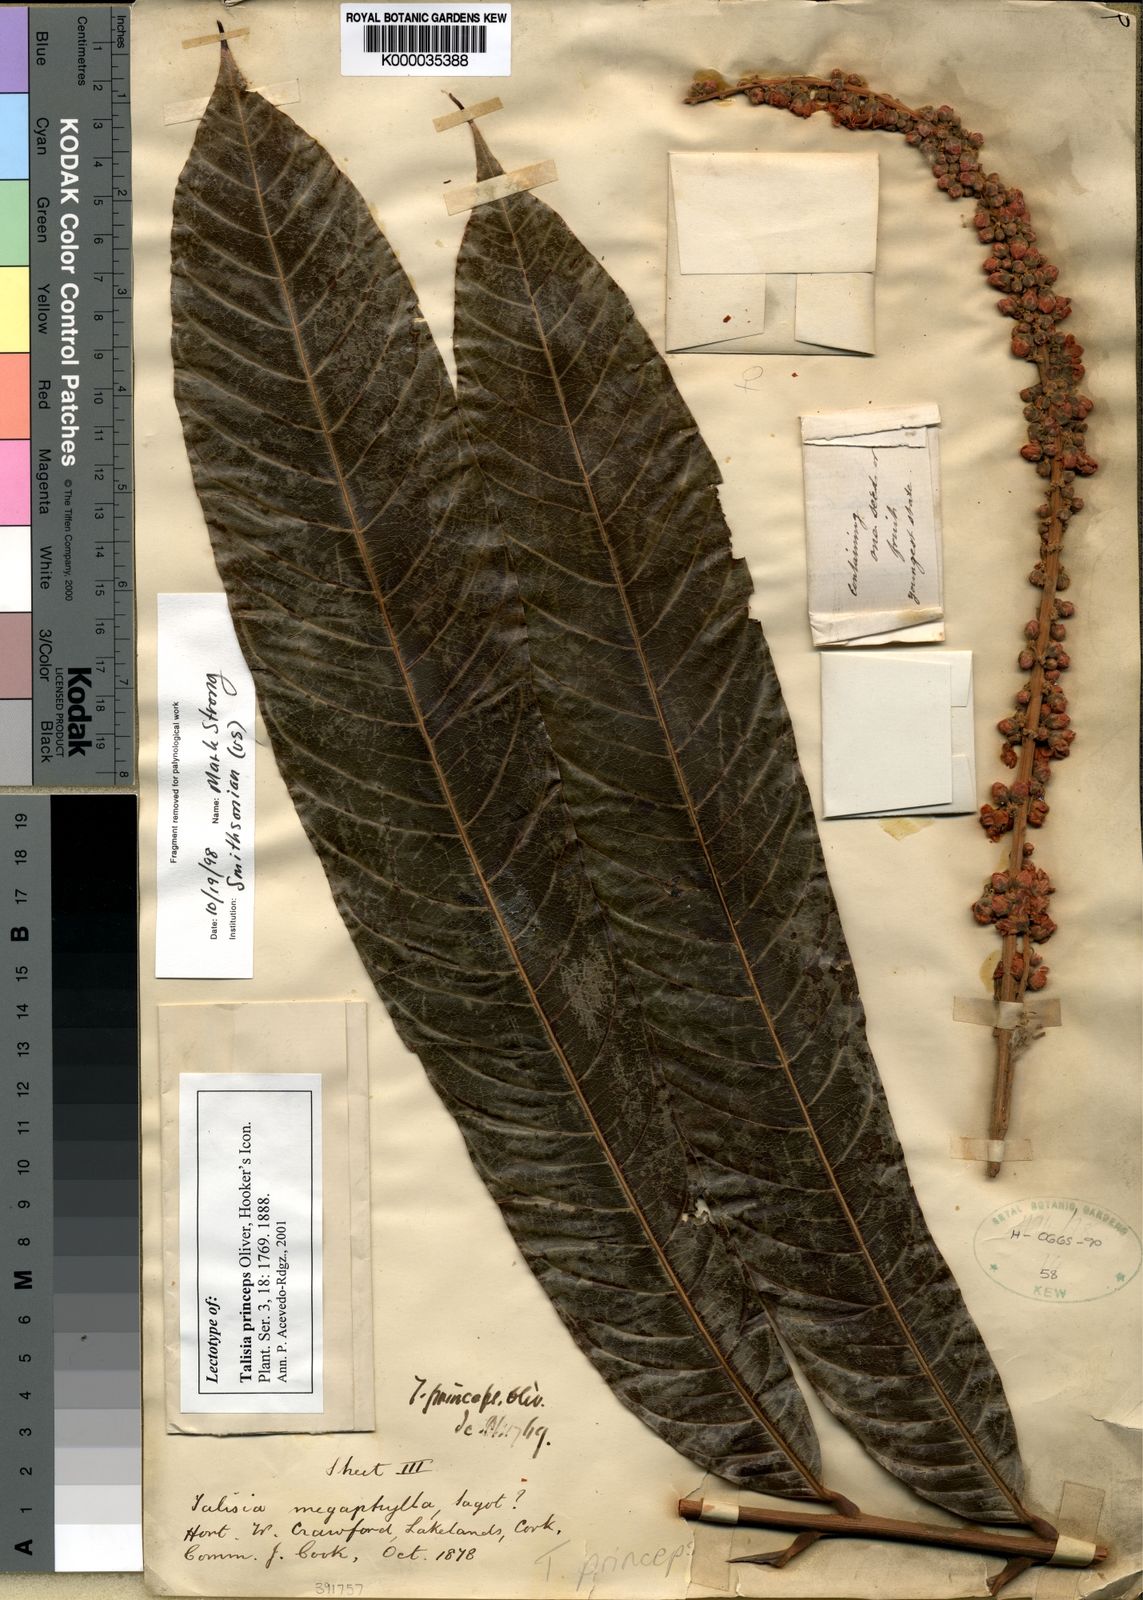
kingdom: Plantae
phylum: Tracheophyta
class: Magnoliopsida
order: Sapindales
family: Sapindaceae
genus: Talisia
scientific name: Talisia princeps
